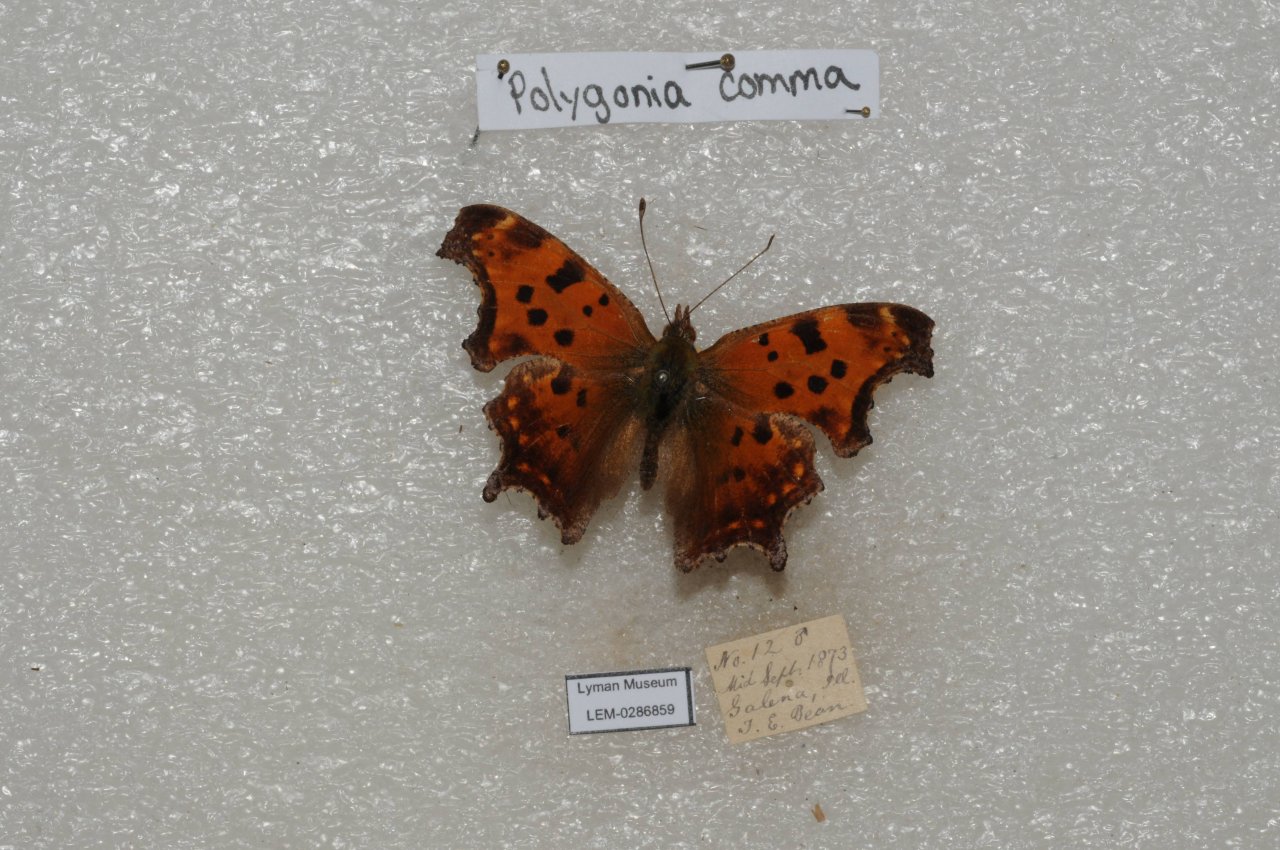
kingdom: Animalia
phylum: Arthropoda
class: Insecta
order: Lepidoptera
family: Nymphalidae
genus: Polygonia
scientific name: Polygonia comma
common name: Eastern Comma
